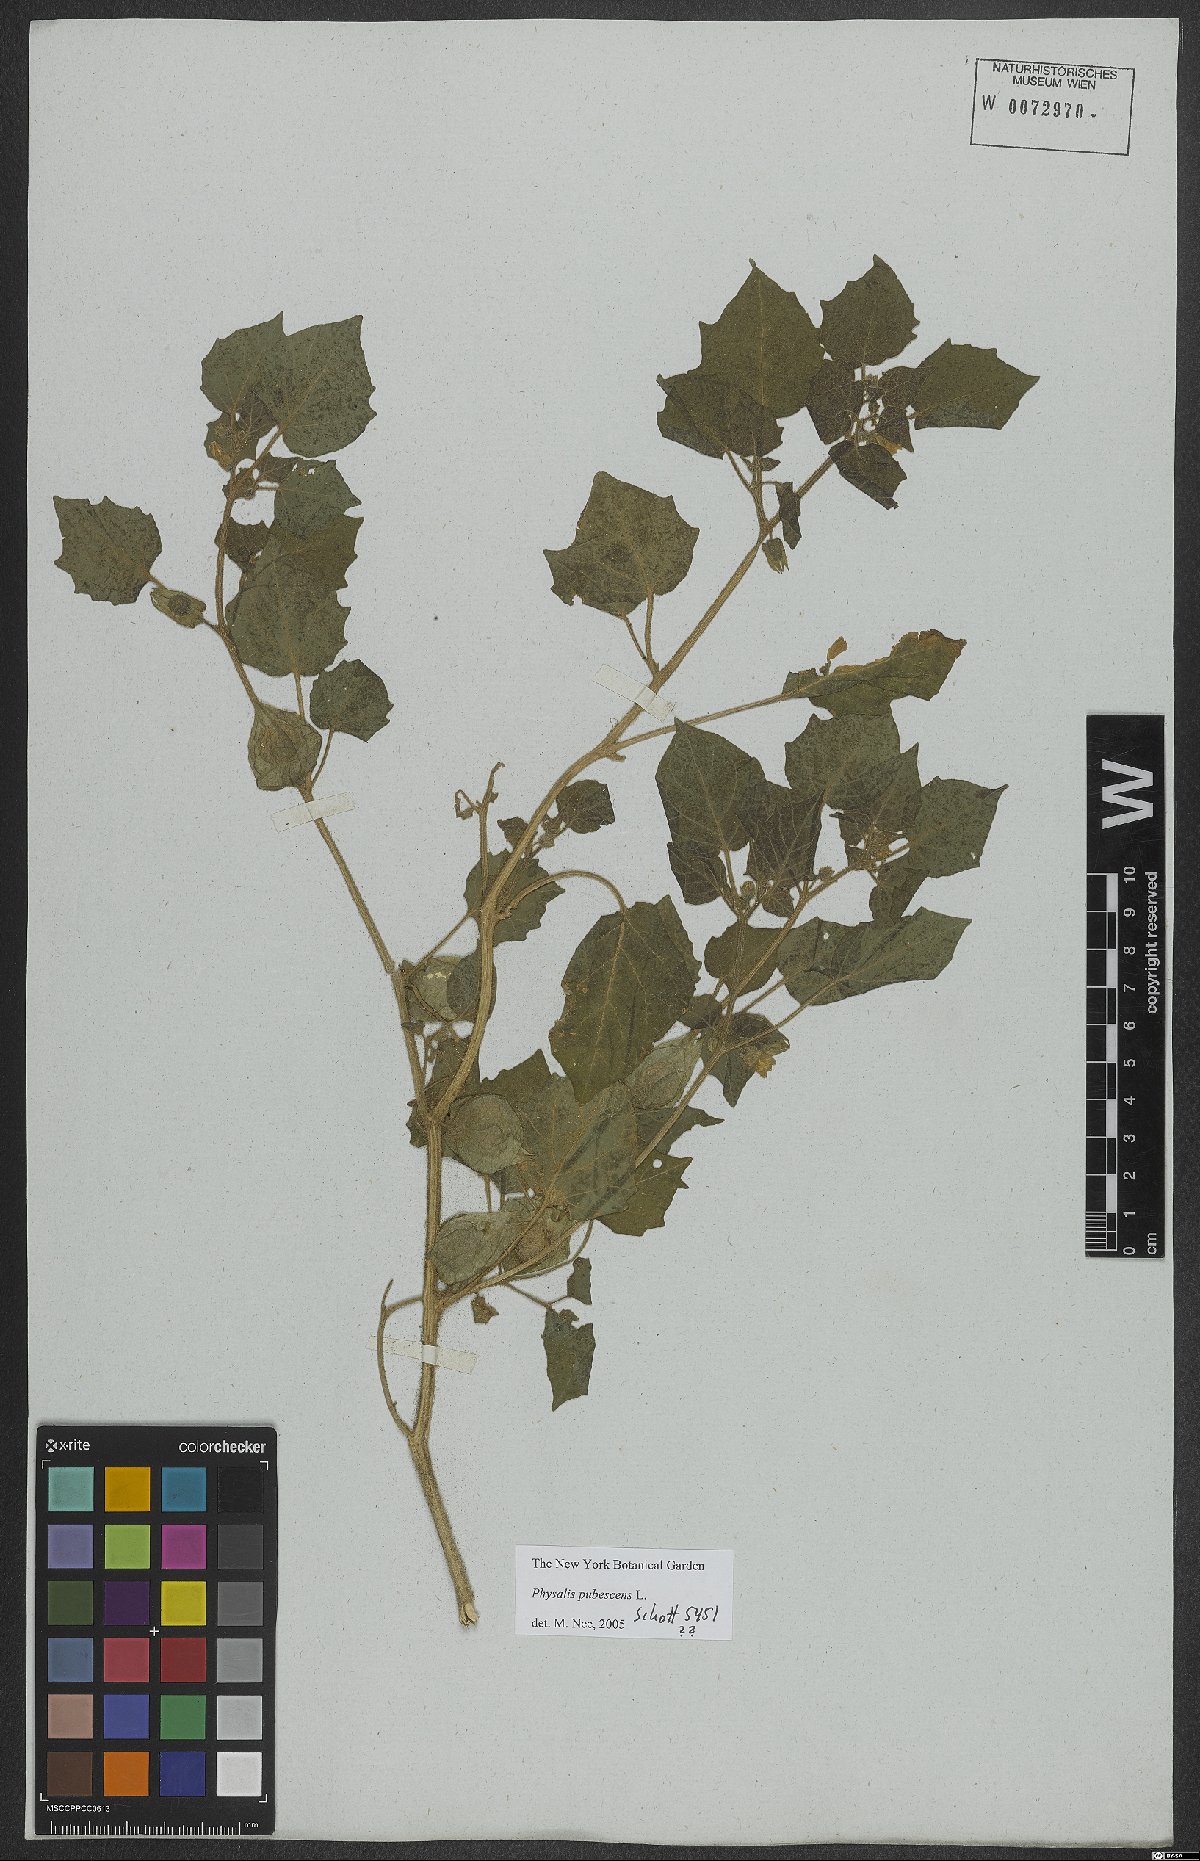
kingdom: Plantae
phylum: Tracheophyta
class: Magnoliopsida
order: Solanales
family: Solanaceae
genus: Physalis
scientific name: Physalis pubescens
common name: Downy ground-cherry
